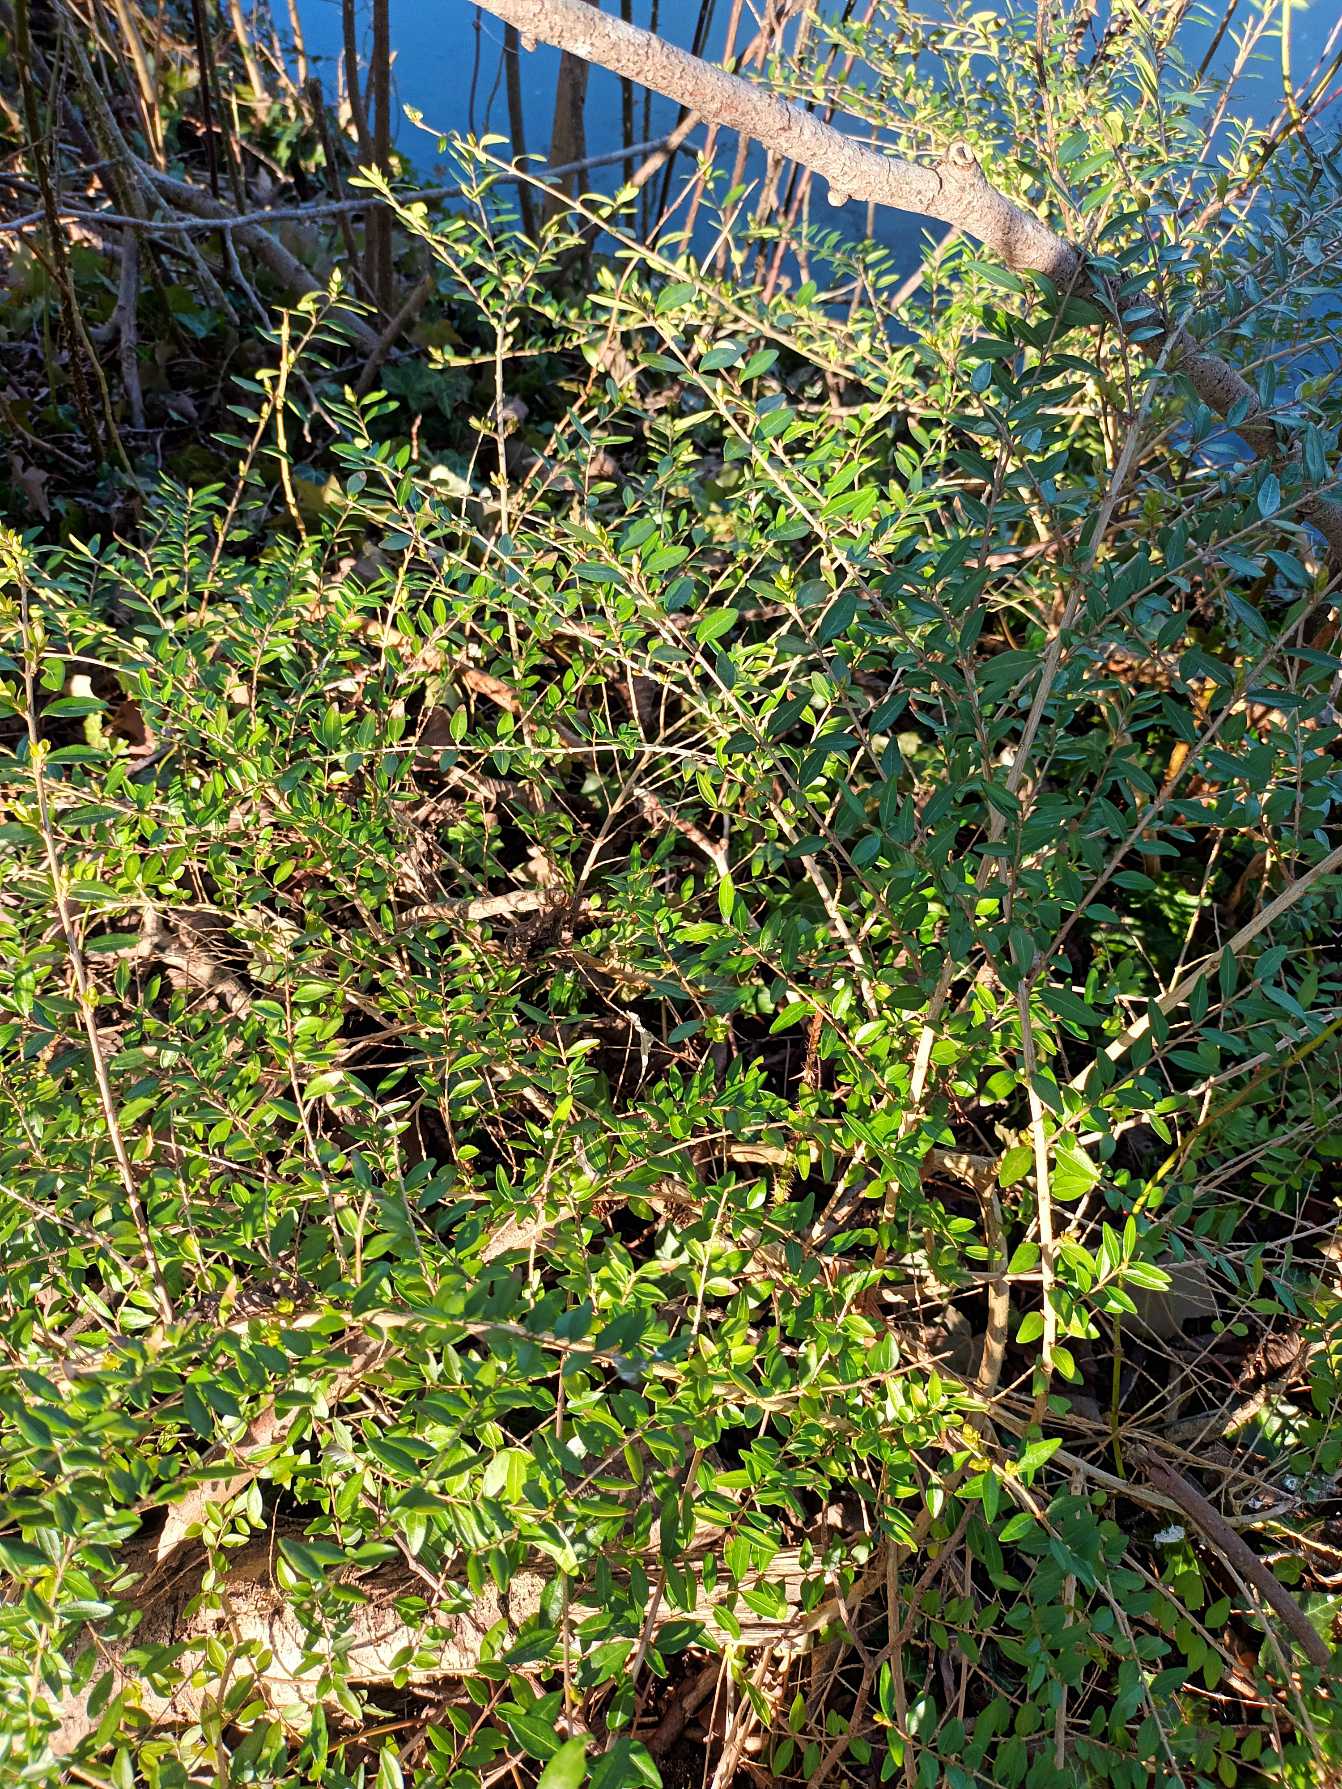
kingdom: Plantae
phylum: Tracheophyta
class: Magnoliopsida
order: Dipsacales
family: Caprifoliaceae
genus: Lonicera
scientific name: Lonicera pileata
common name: Liguster-gedeblad
